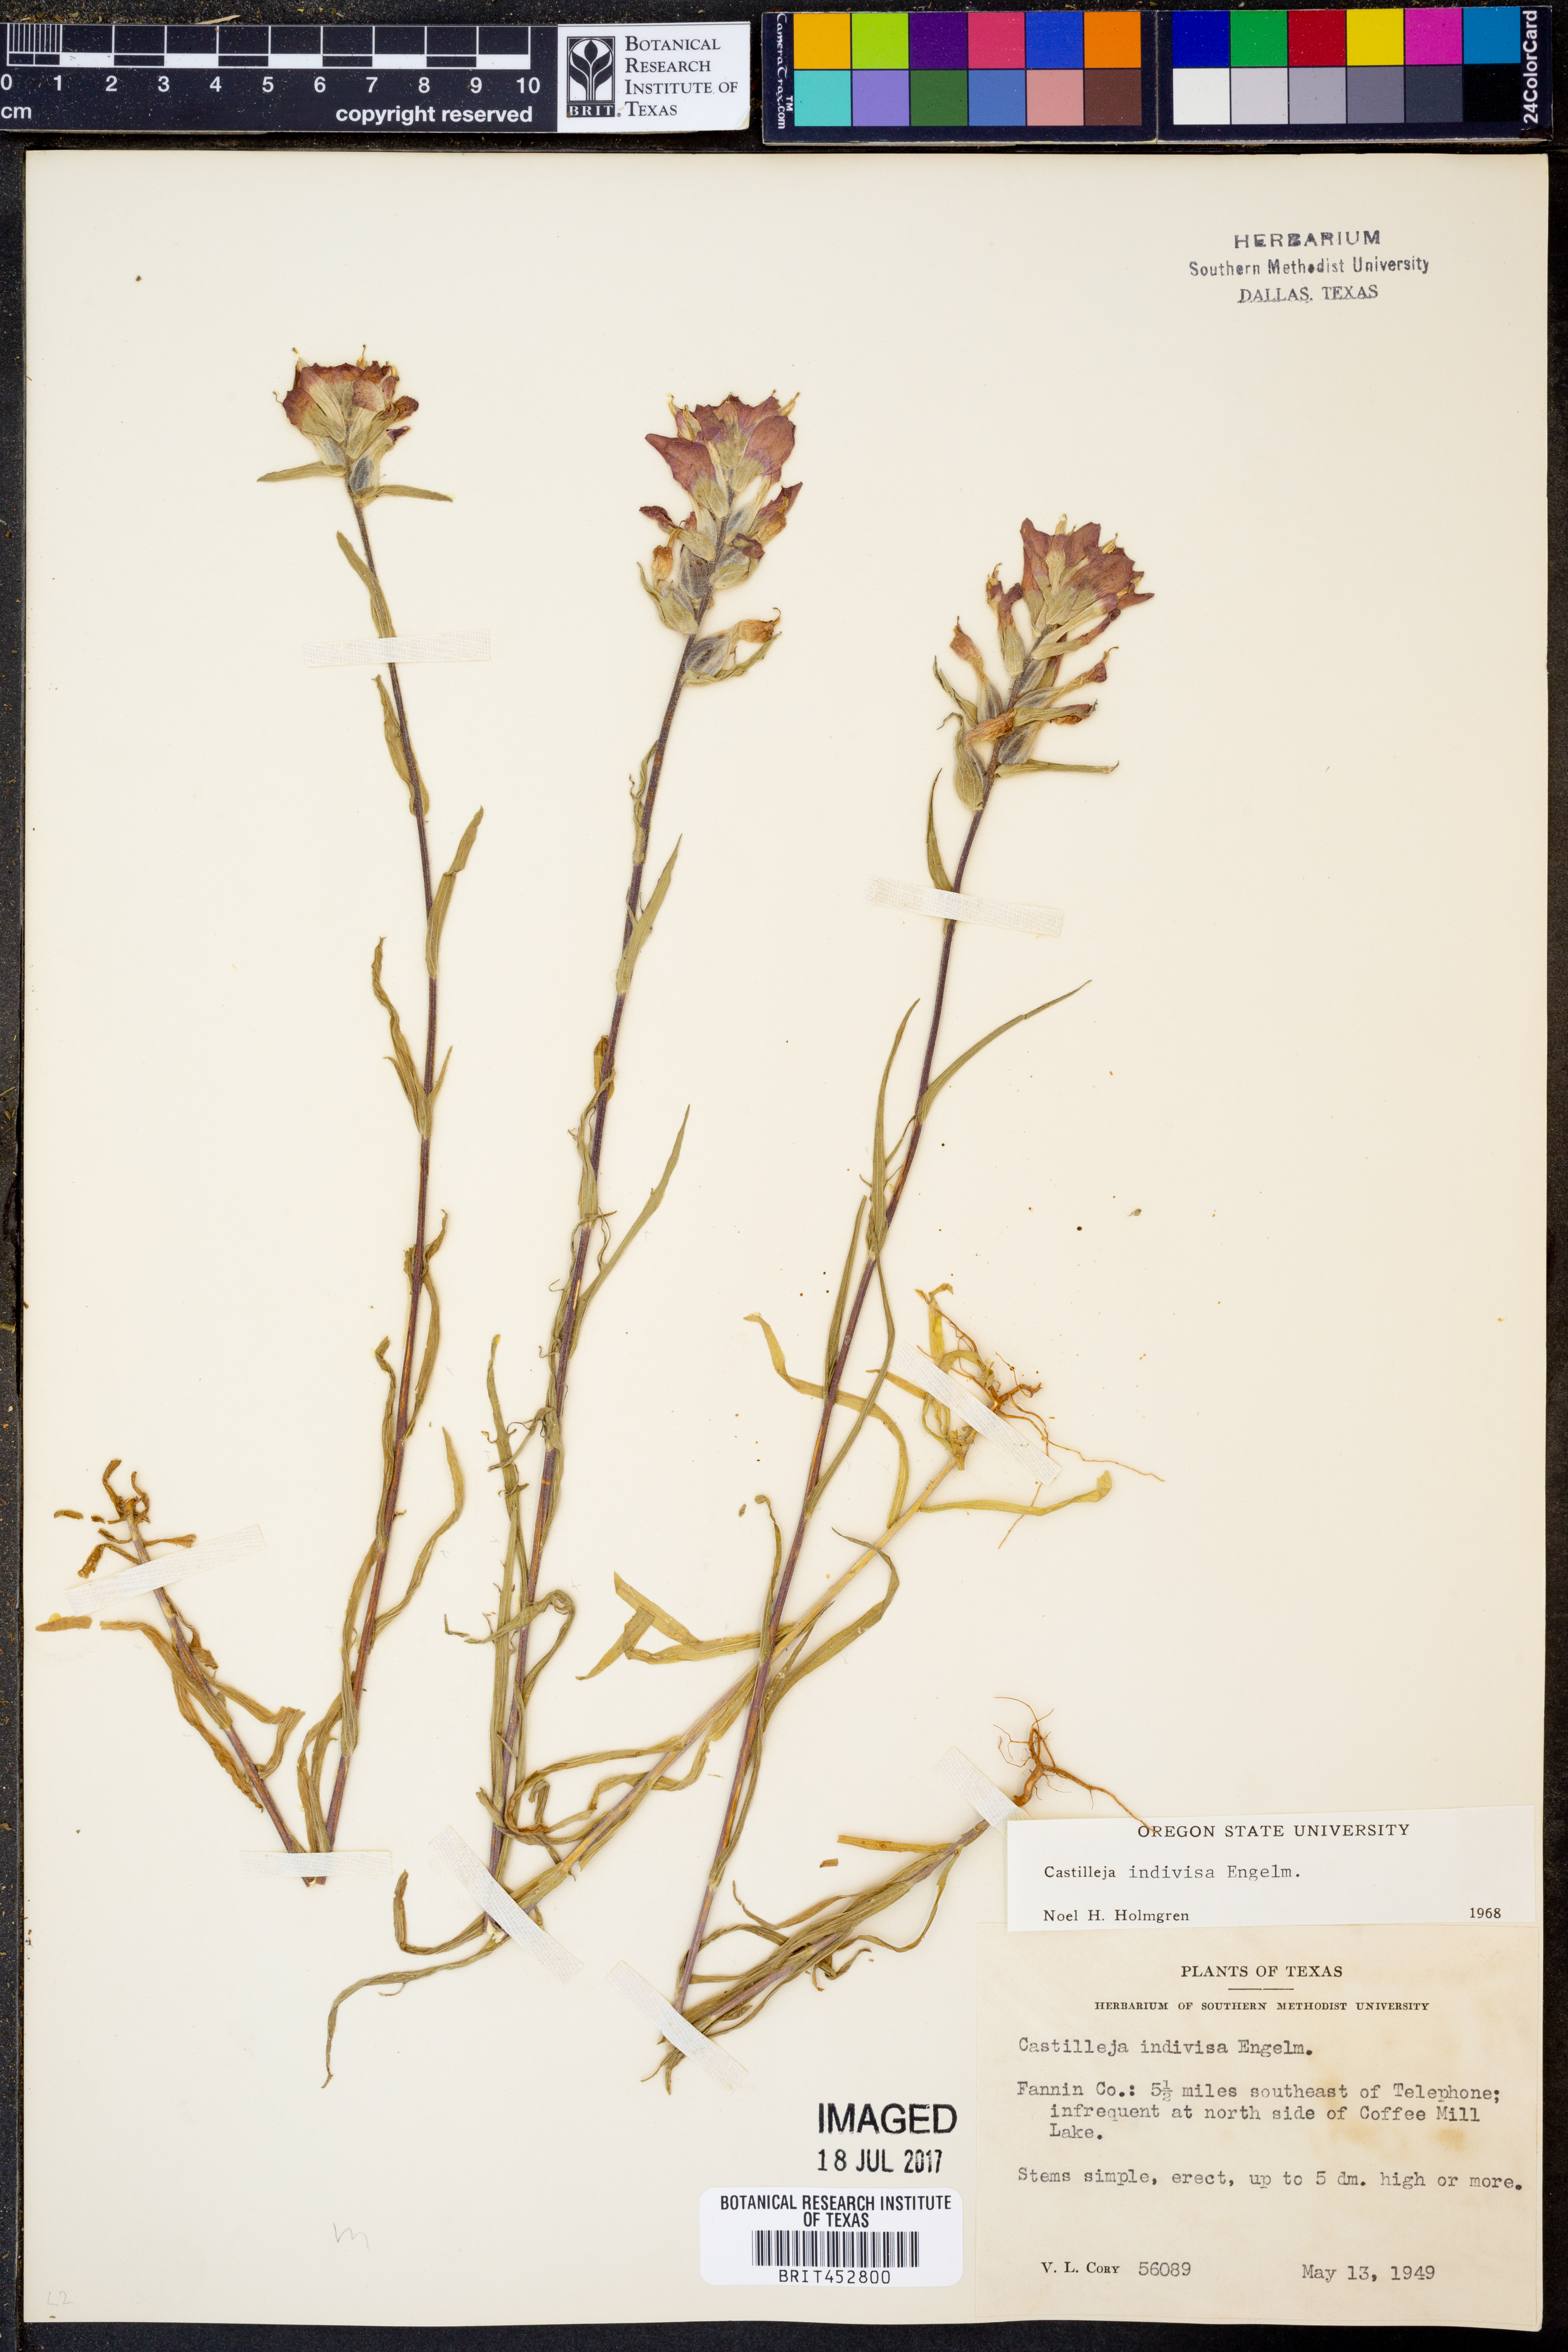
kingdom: Plantae
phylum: Tracheophyta
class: Magnoliopsida
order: Lamiales
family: Orobanchaceae
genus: Castilleja
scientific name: Castilleja indivisa
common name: Texas paintbrush
